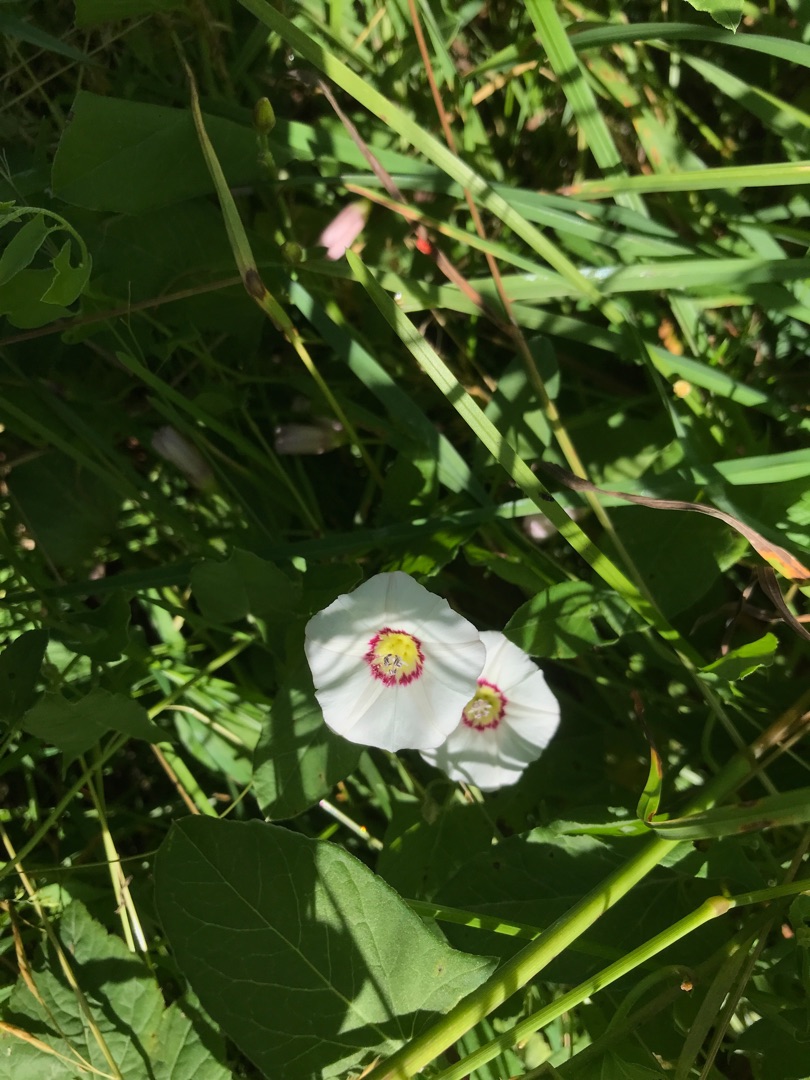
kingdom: Plantae
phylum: Tracheophyta
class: Magnoliopsida
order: Solanales
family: Convolvulaceae
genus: Convolvulus
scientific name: Convolvulus arvensis
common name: Ager-snerle
